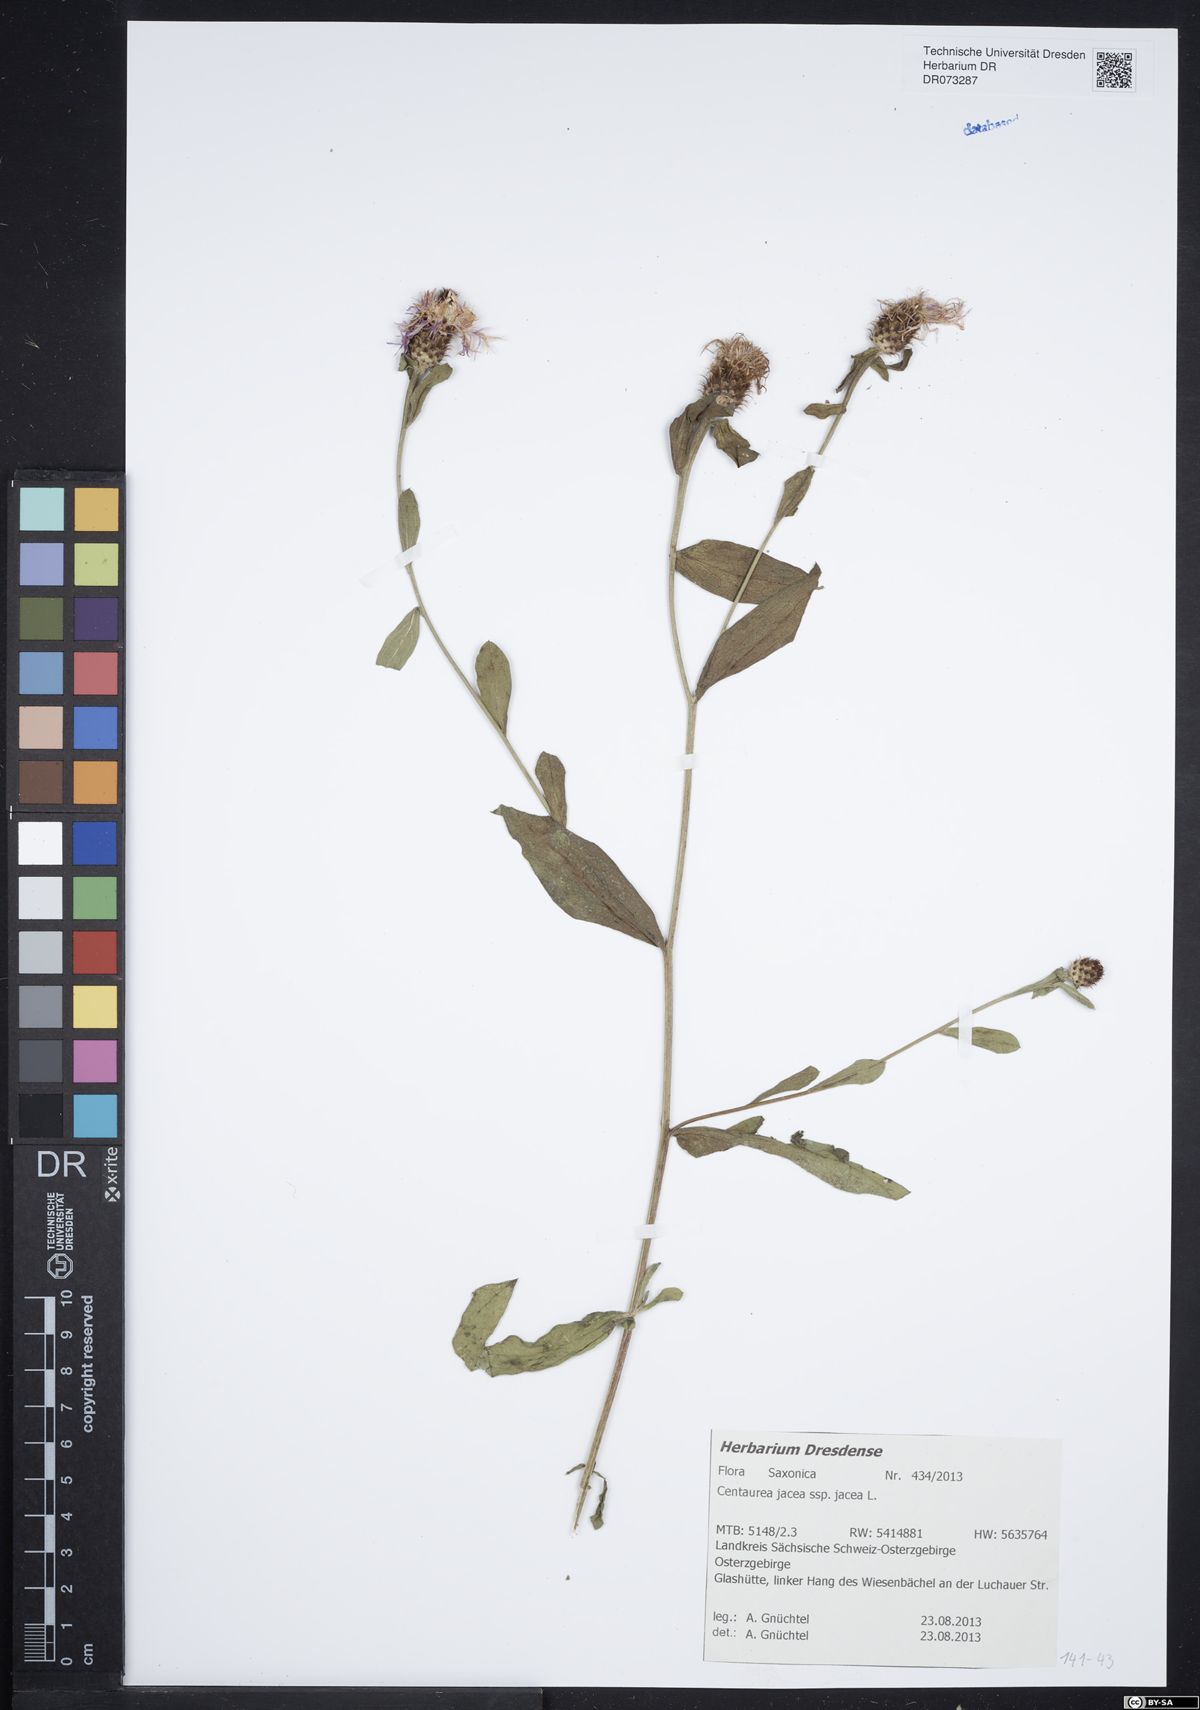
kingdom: Plantae
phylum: Tracheophyta
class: Magnoliopsida
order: Asterales
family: Asteraceae
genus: Centaurea
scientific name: Centaurea jacea
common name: Brown knapweed
